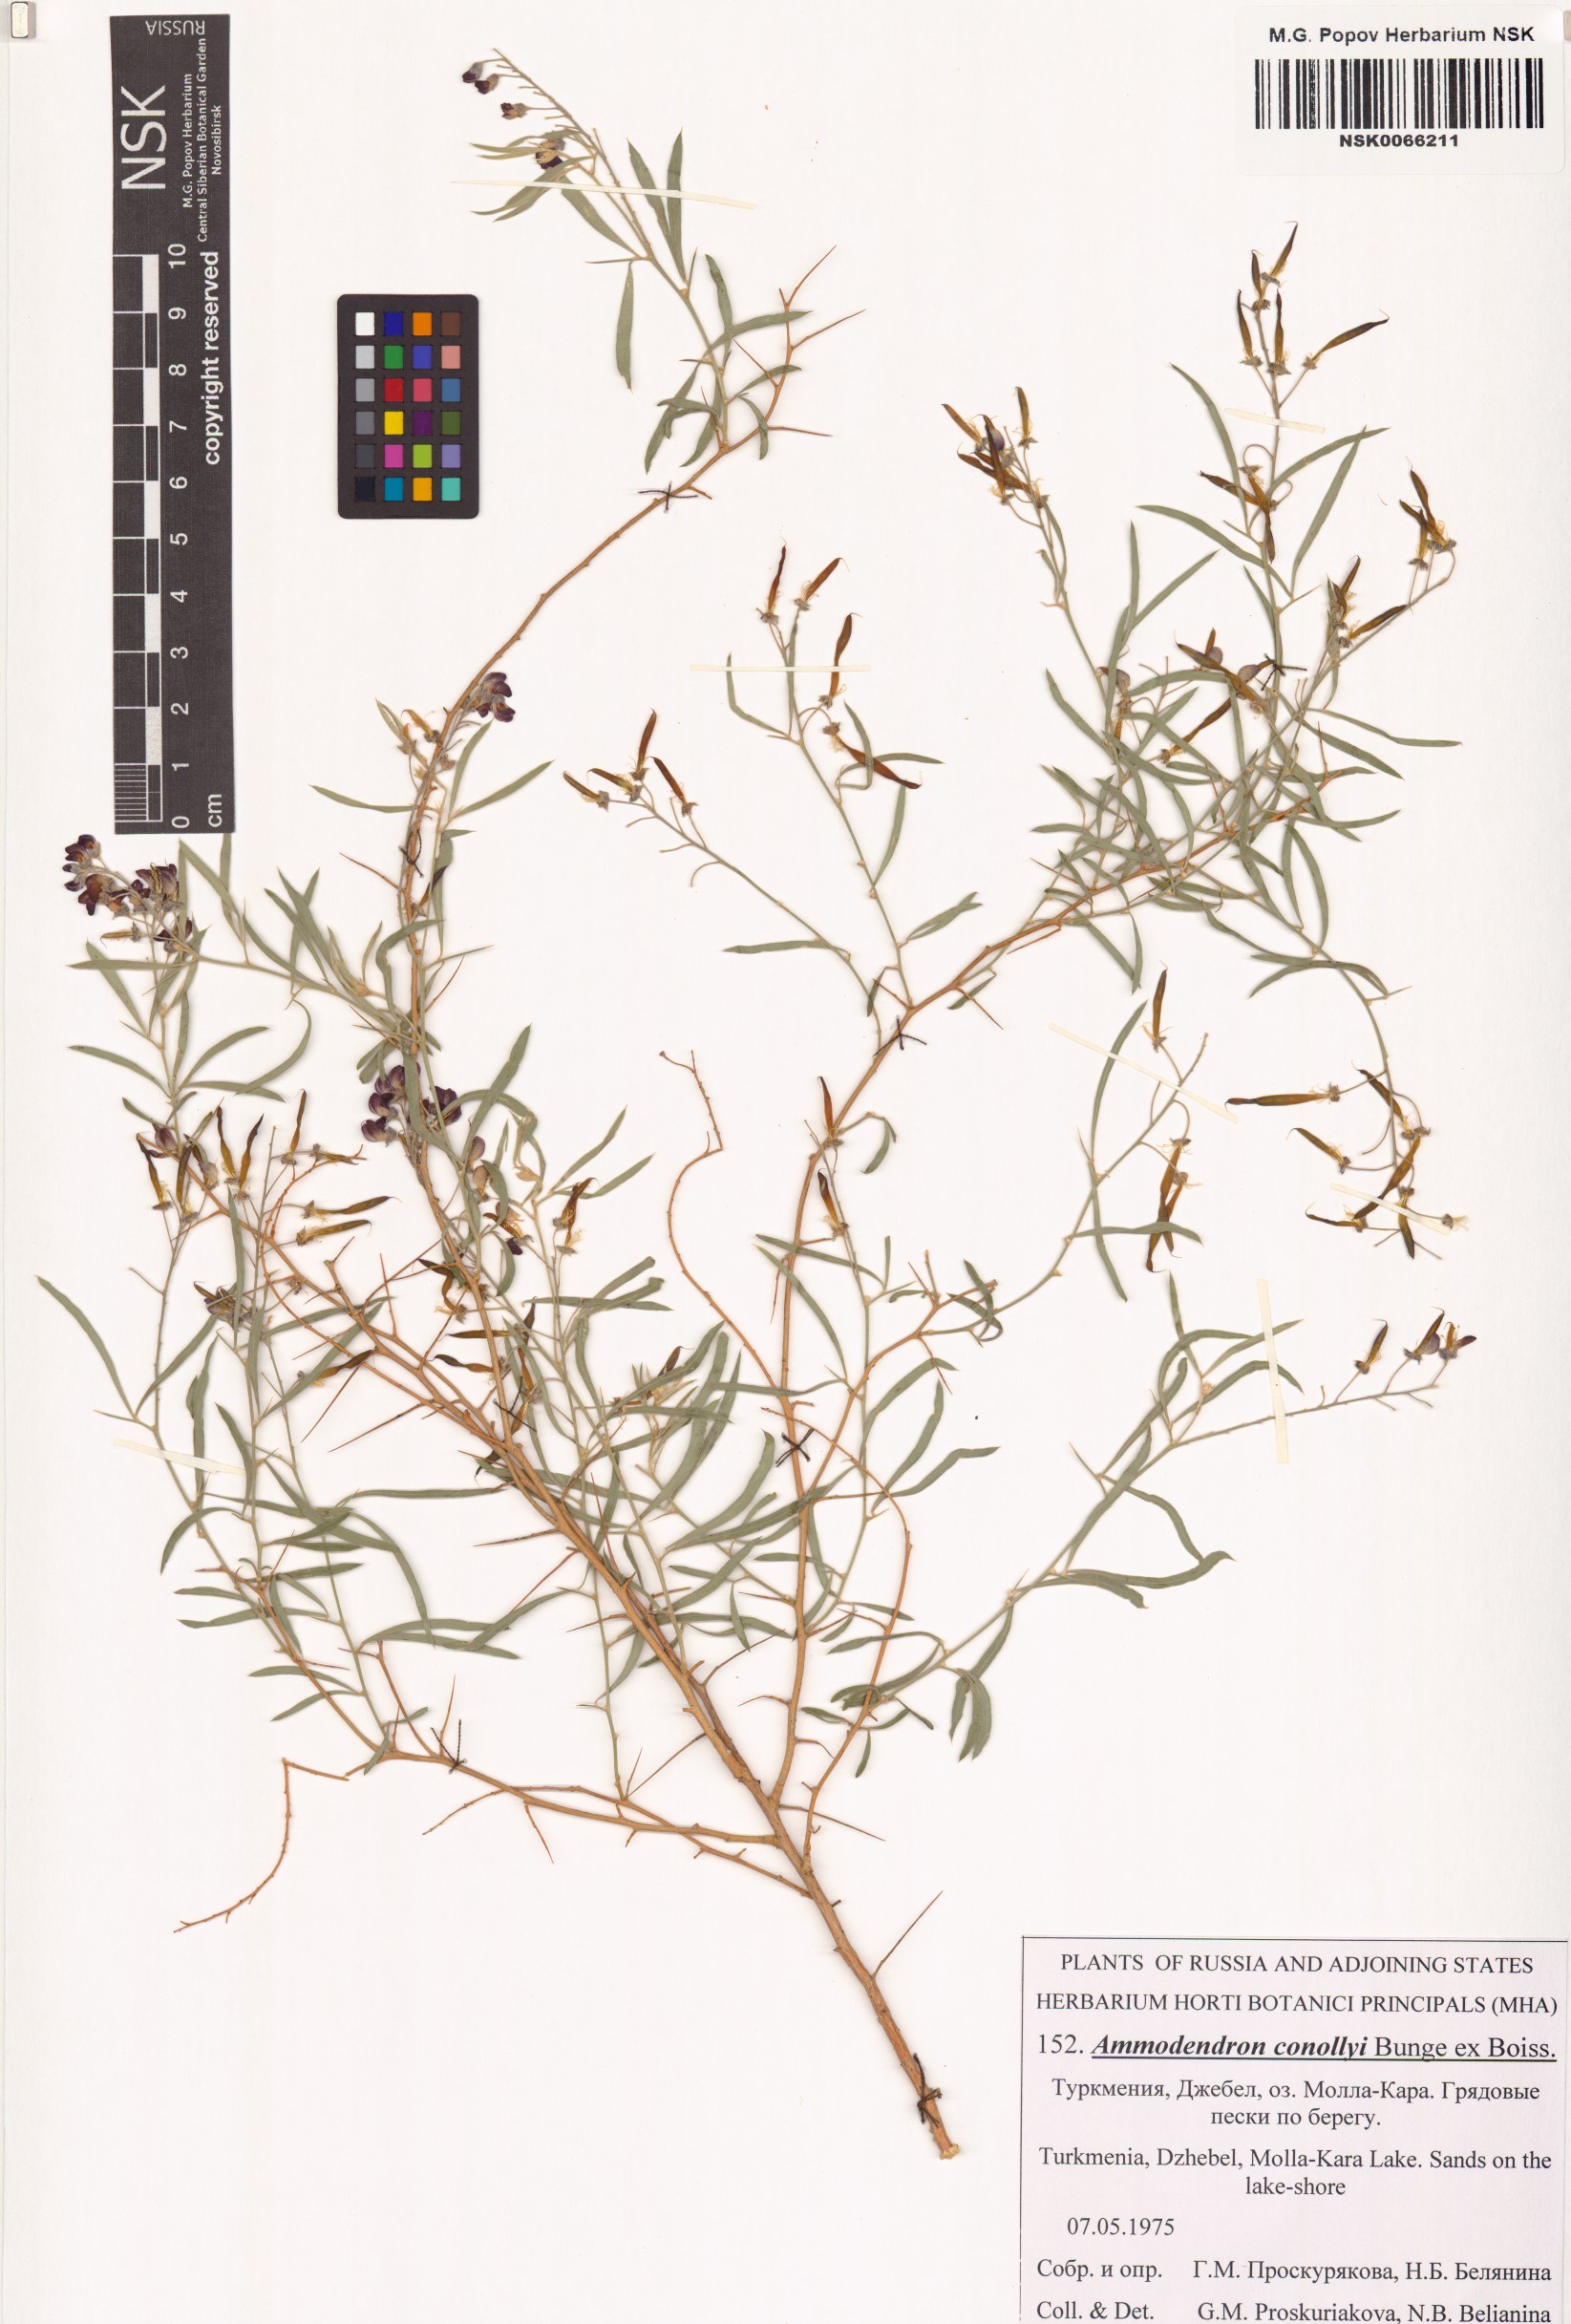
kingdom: Plantae
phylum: Tracheophyta
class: Magnoliopsida
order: Fabales
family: Fabaceae
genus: Ammodendron
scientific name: Ammodendron conollyi
